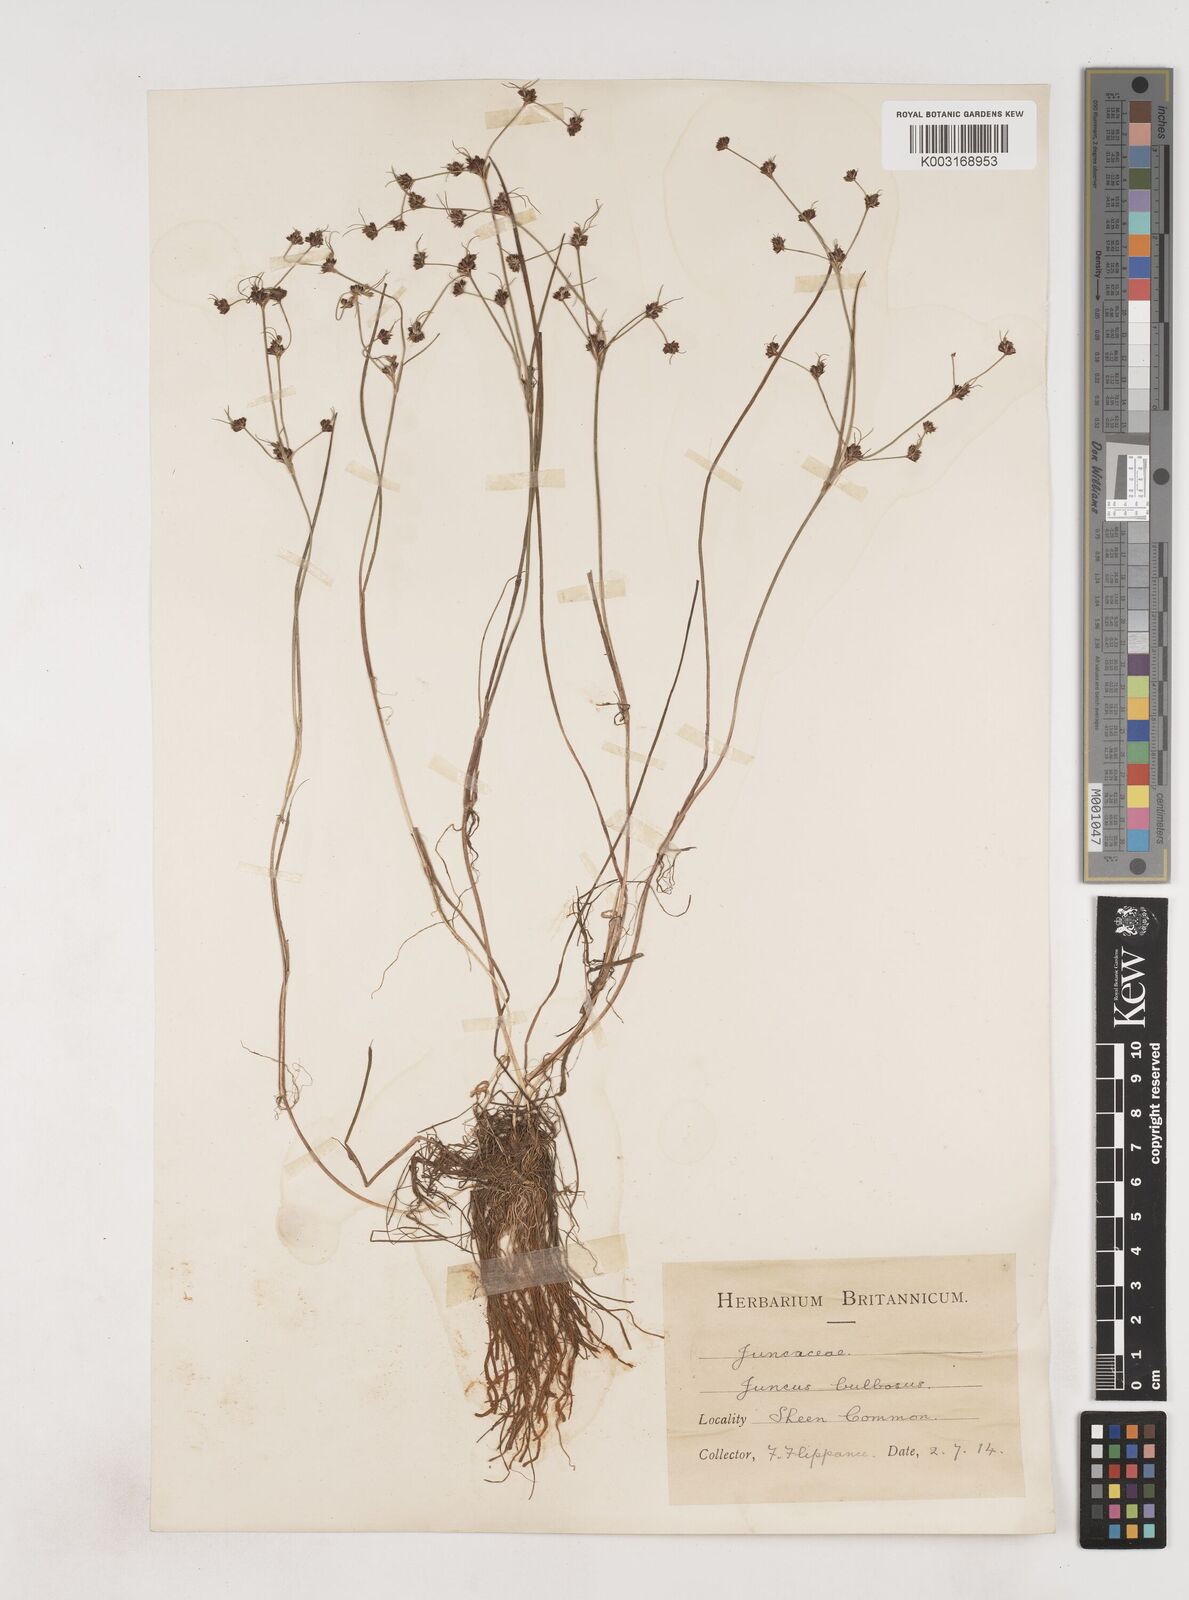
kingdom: Plantae
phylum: Tracheophyta
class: Liliopsida
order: Poales
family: Juncaceae
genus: Juncus
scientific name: Juncus bulbosus
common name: Bulbous rush
